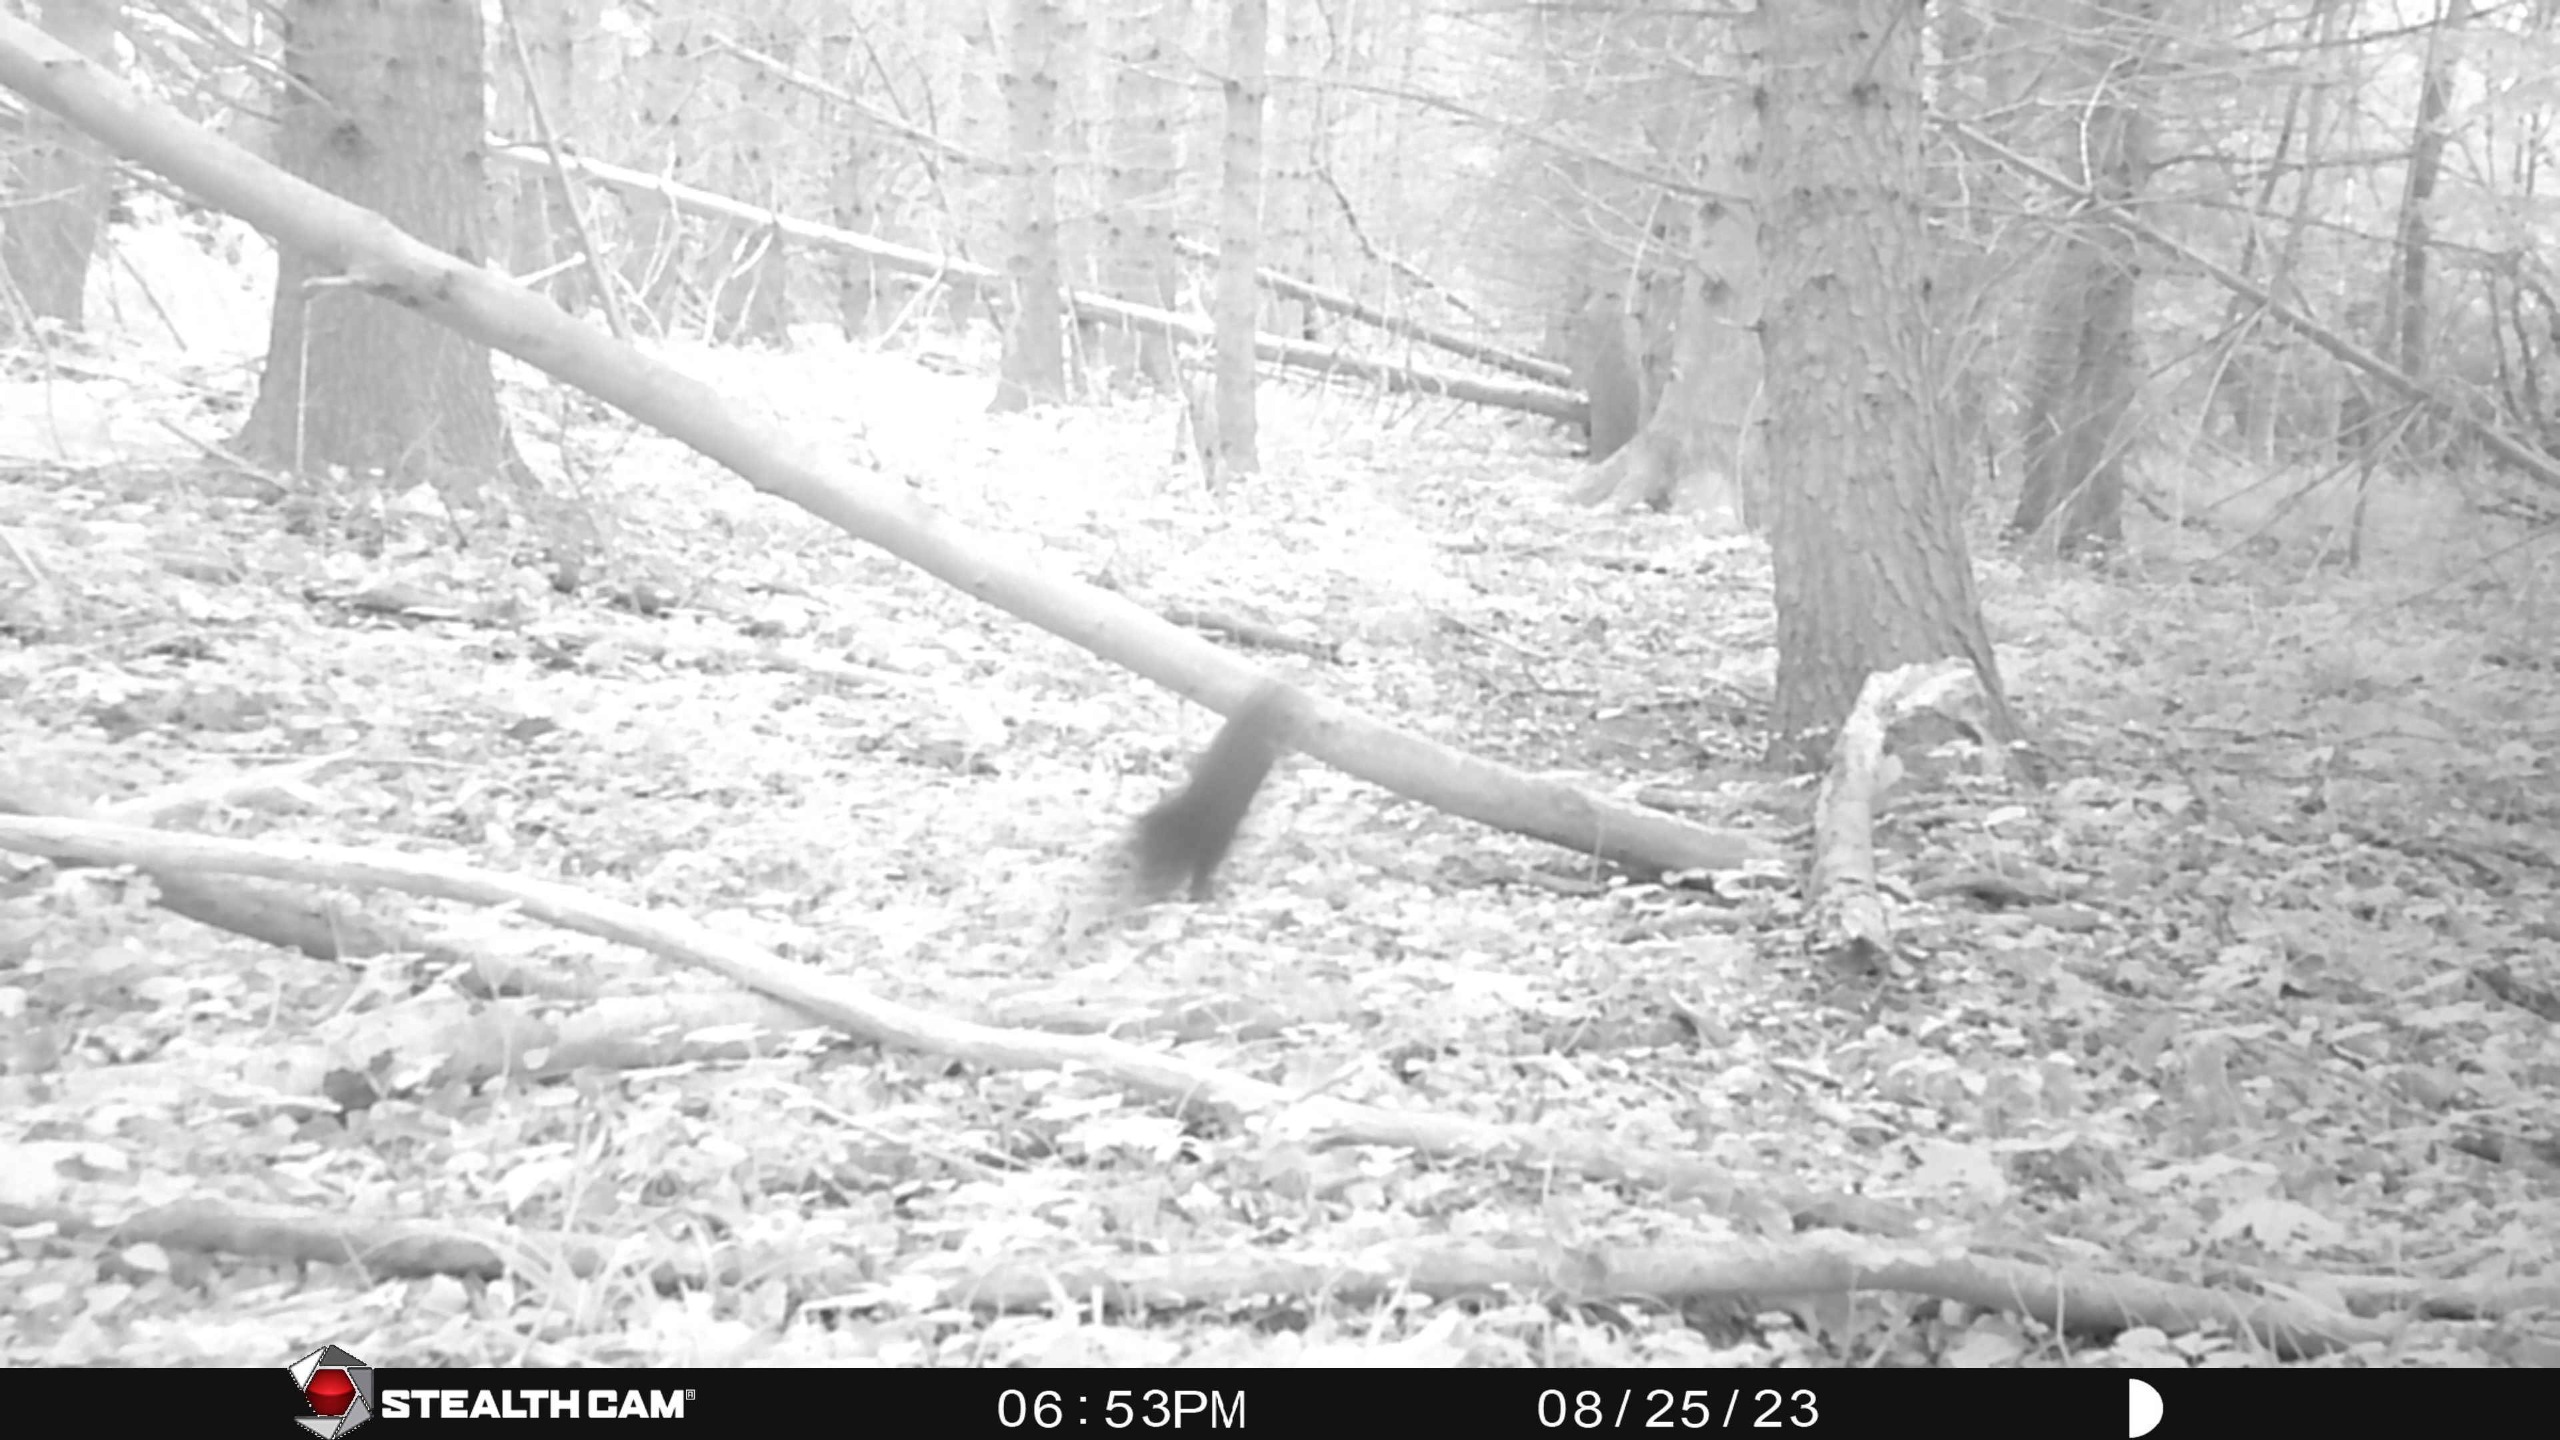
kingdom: Animalia
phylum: Chordata
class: Mammalia
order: Rodentia
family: Sciuridae
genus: Sciurus
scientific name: Sciurus vulgaris
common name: Egern
